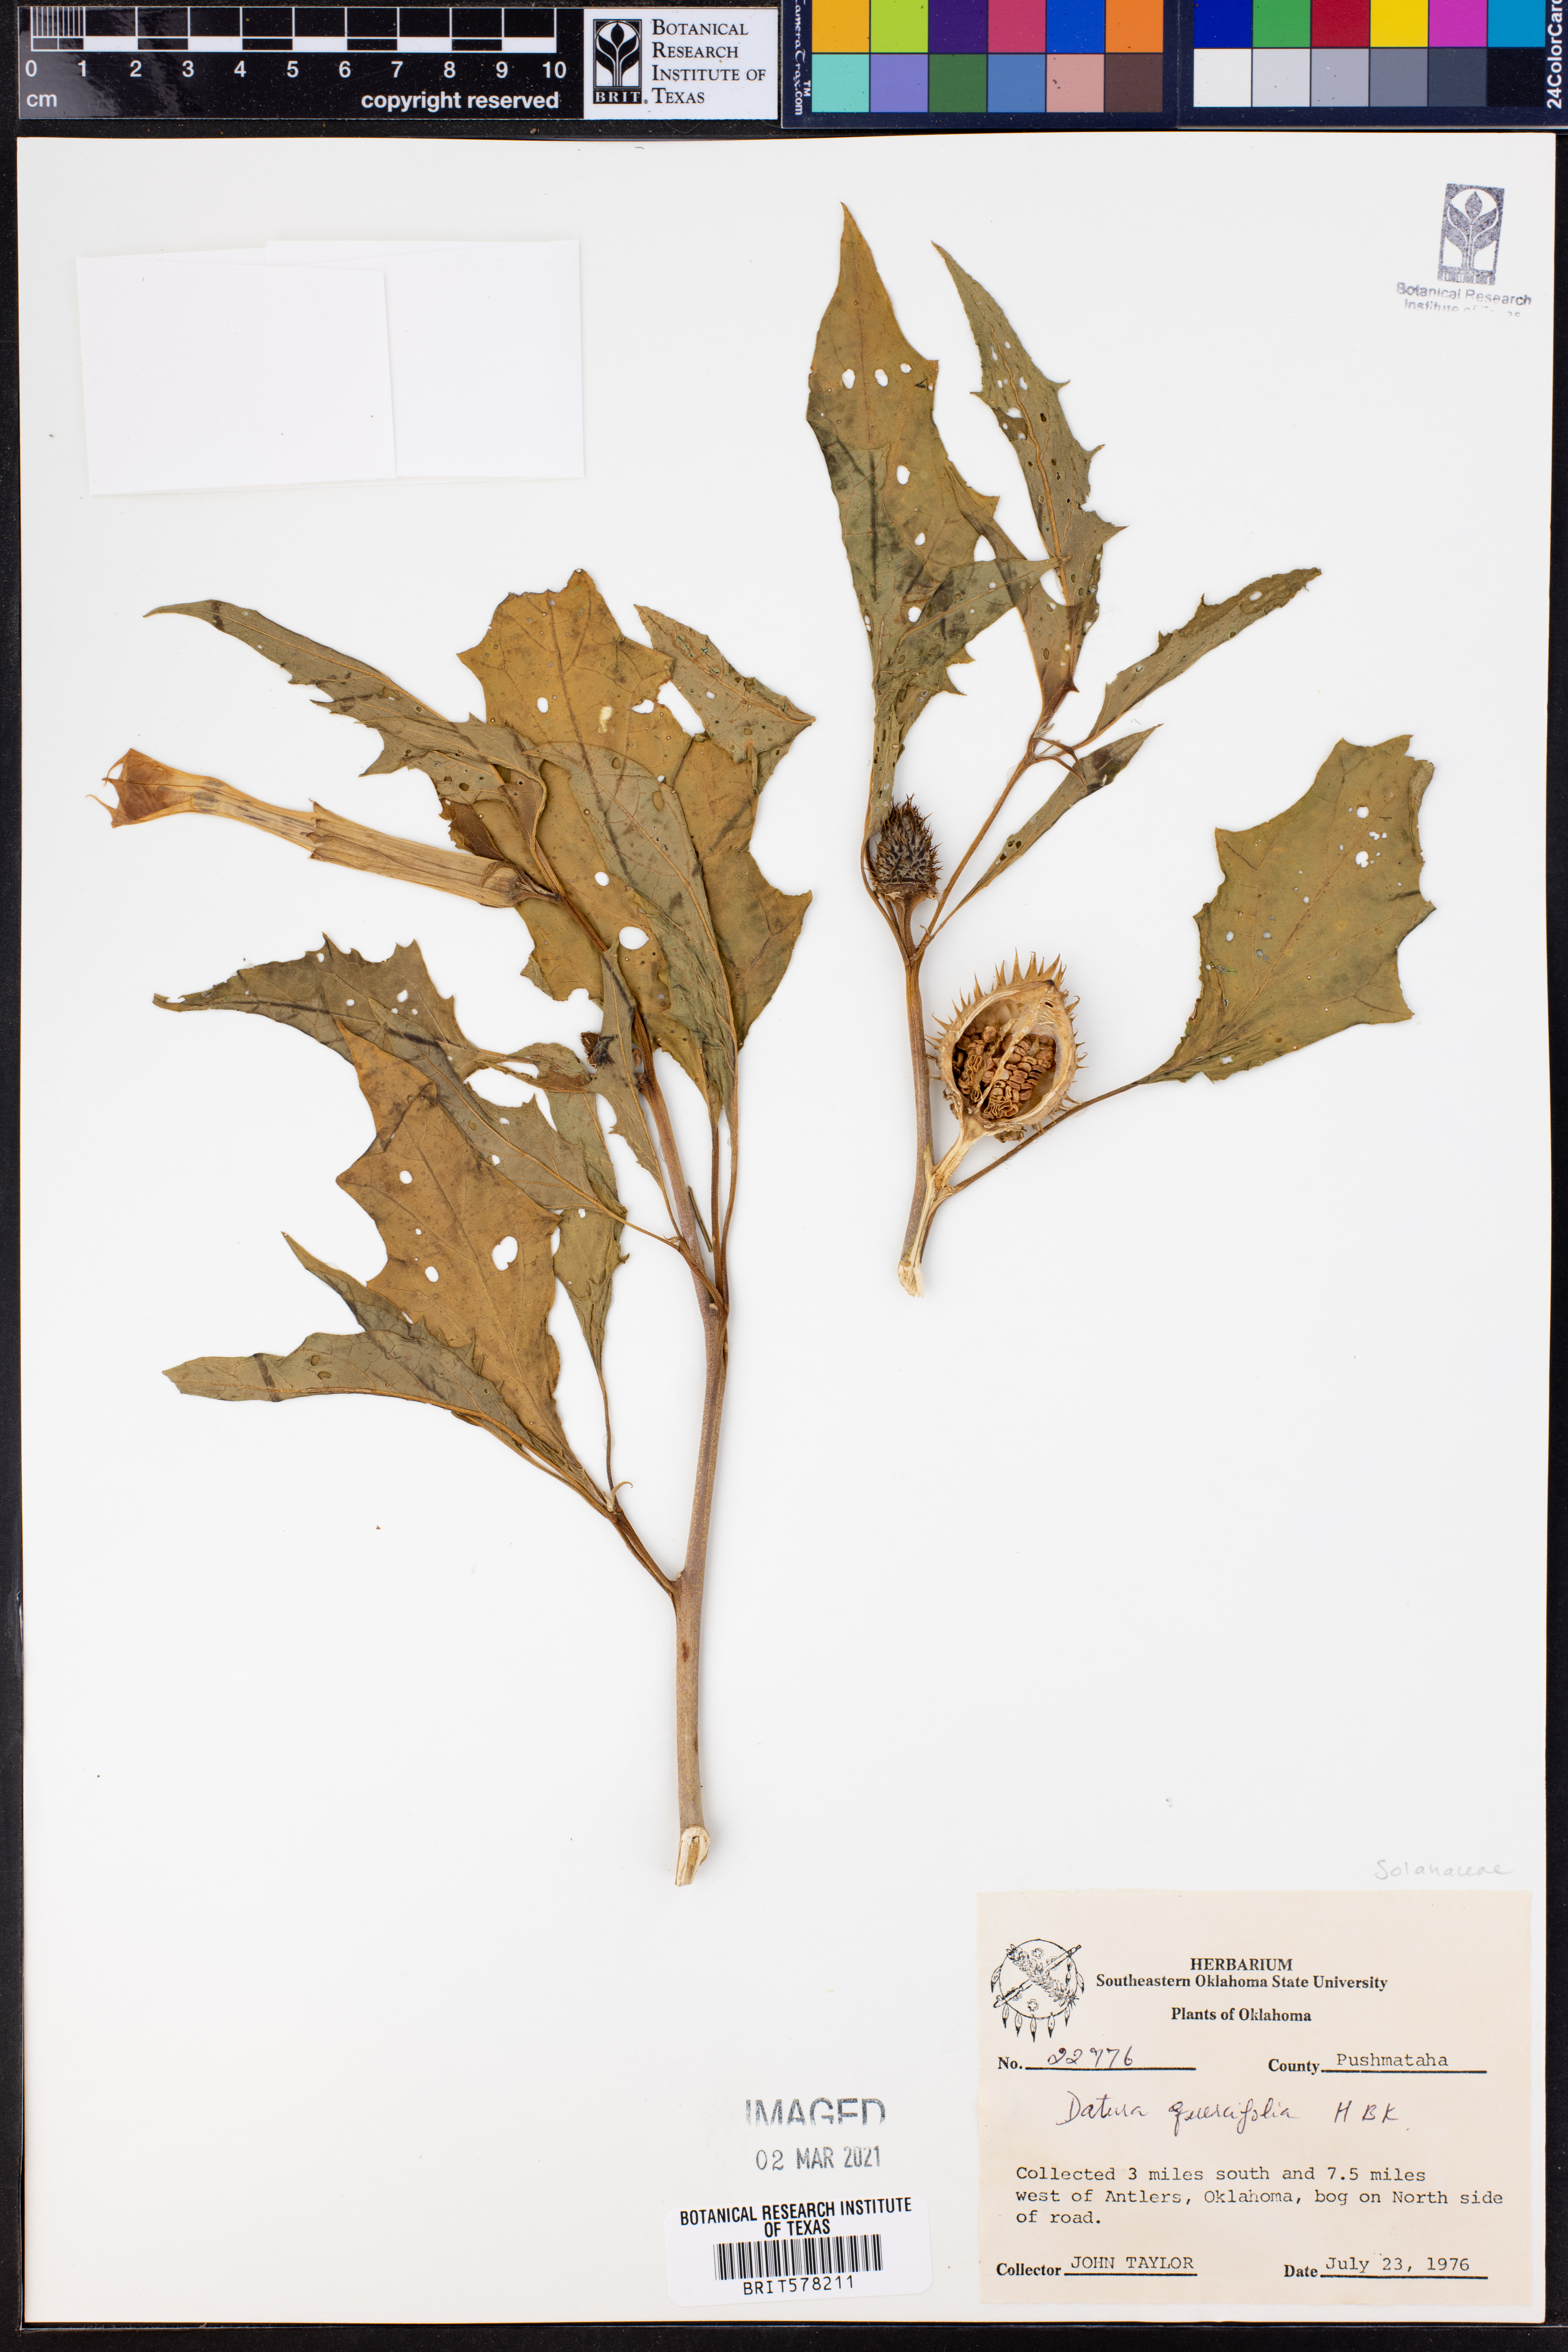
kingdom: Plantae
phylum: Tracheophyta
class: Magnoliopsida
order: Solanales
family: Solanaceae
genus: Datura
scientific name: Datura quercifolia
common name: Oak-leaf datura
